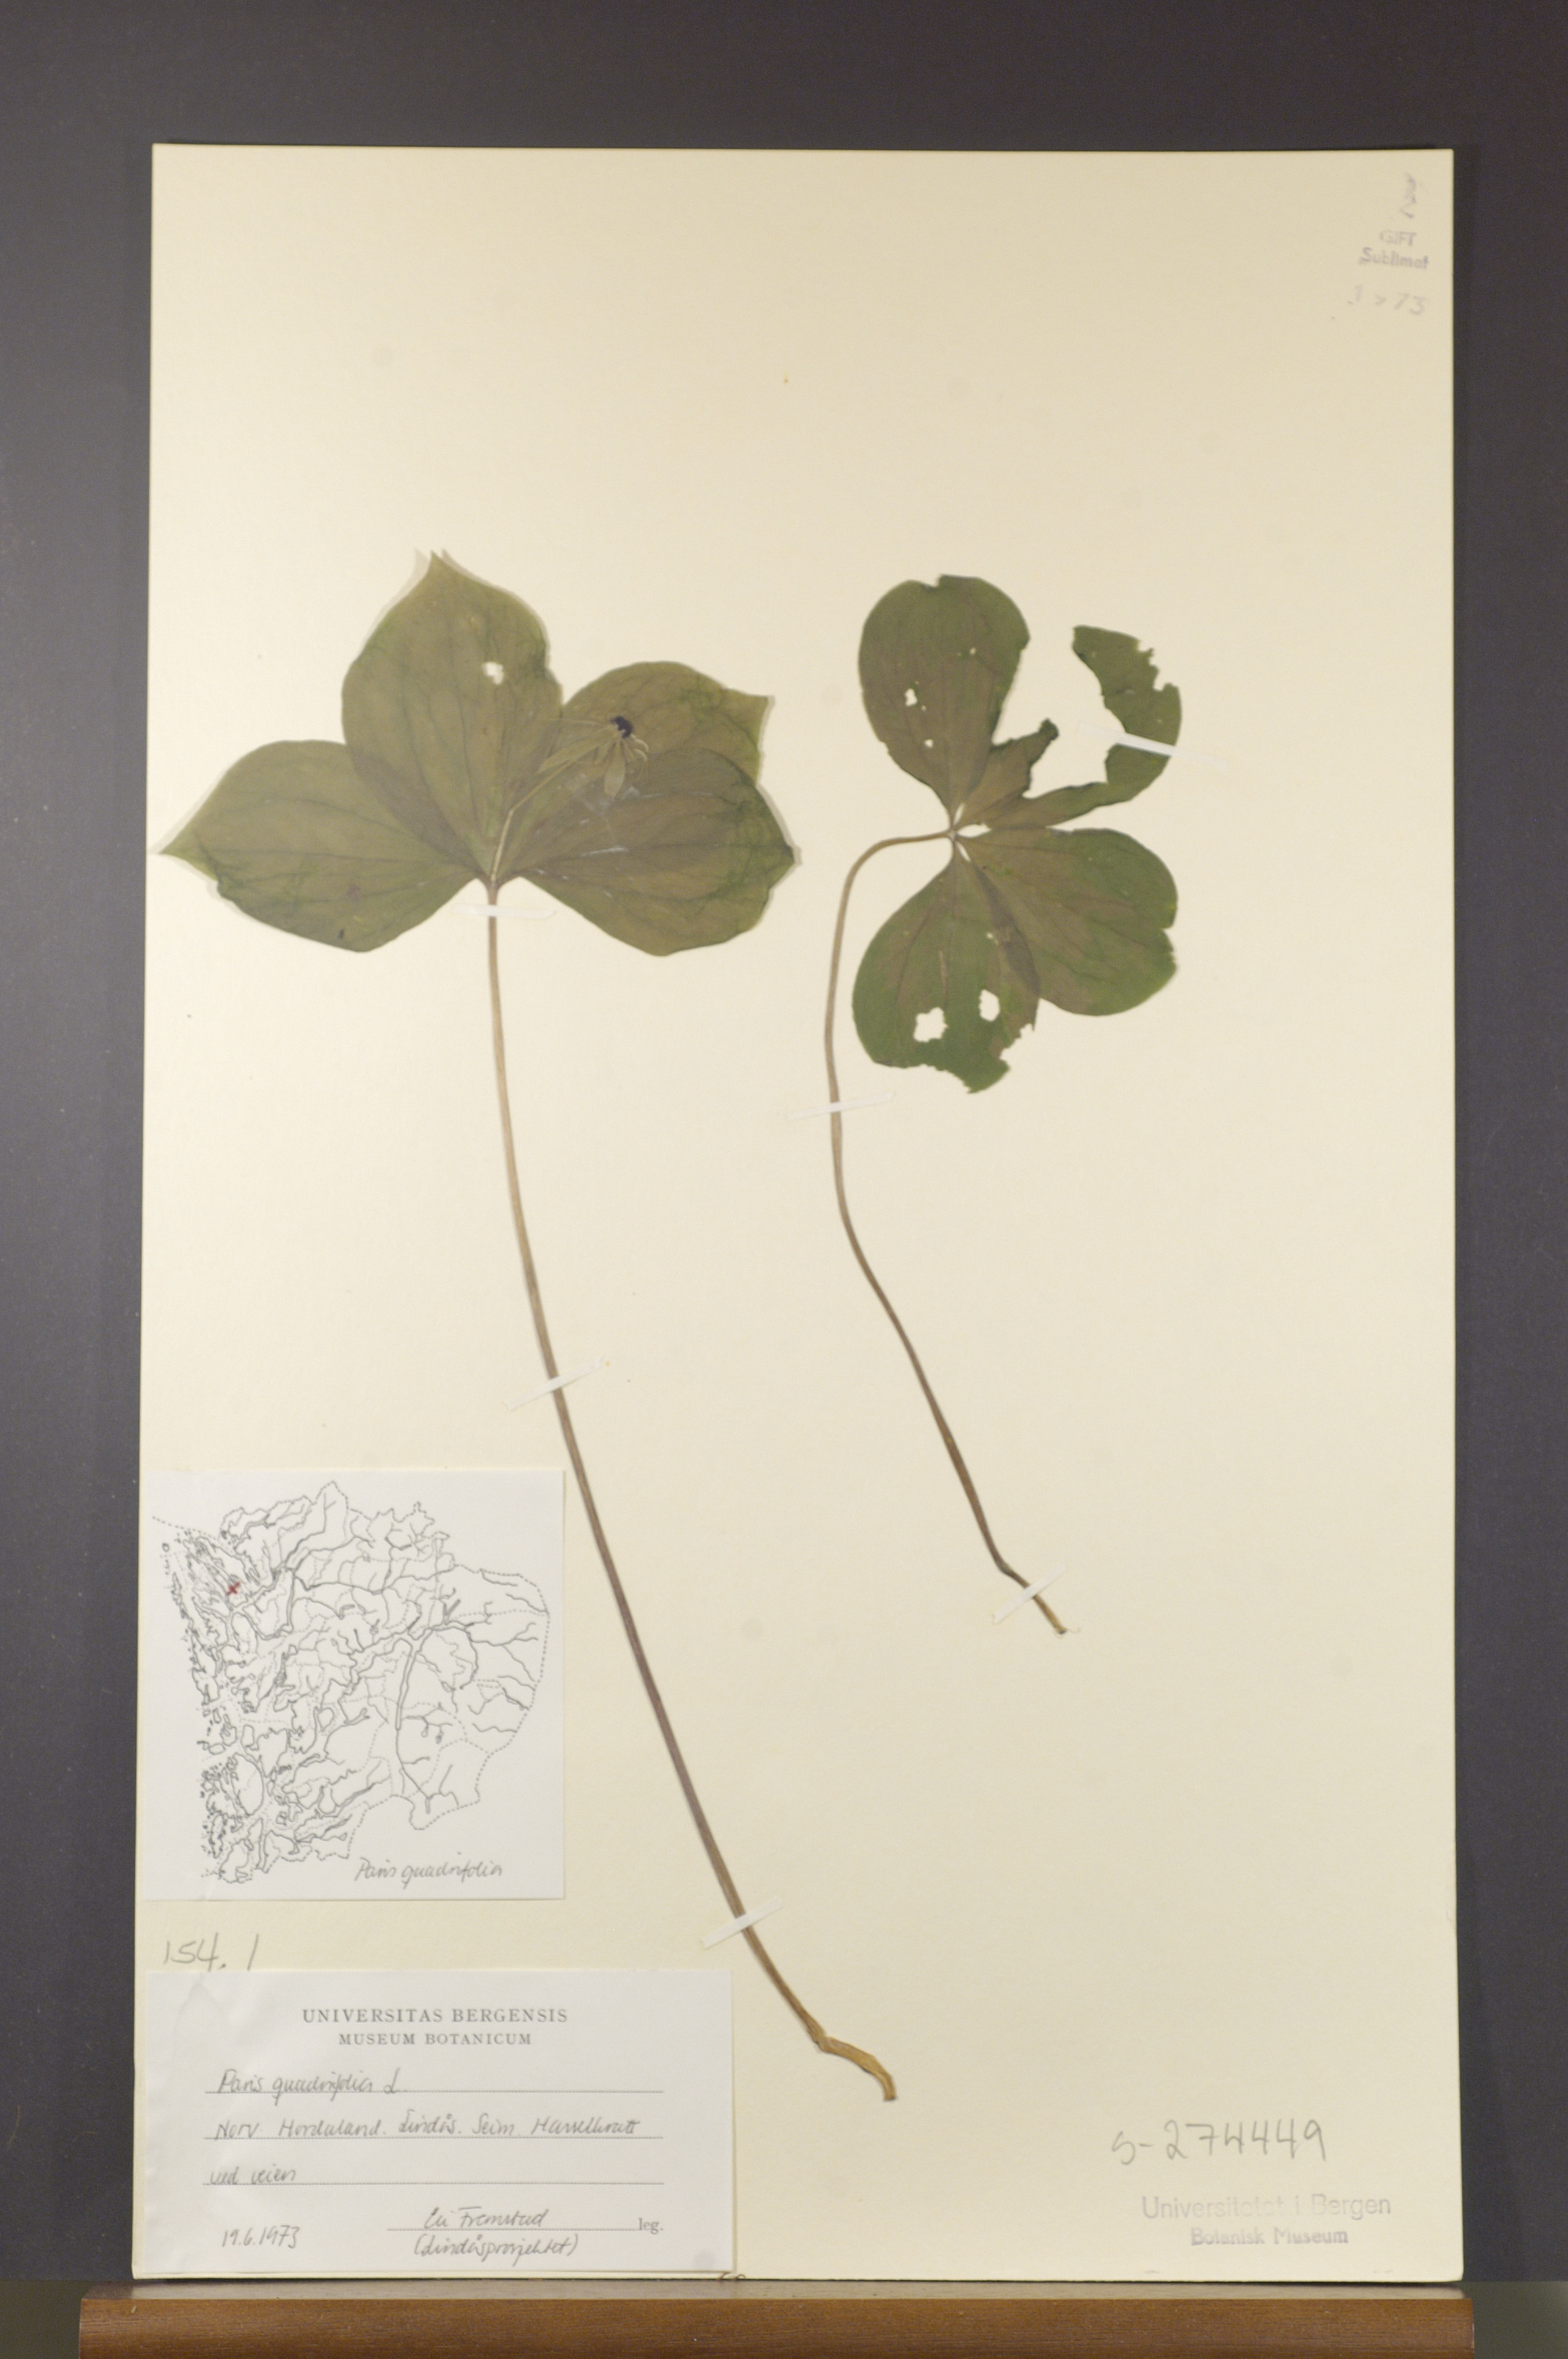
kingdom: Plantae
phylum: Tracheophyta
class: Liliopsida
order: Liliales
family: Melanthiaceae
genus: Paris
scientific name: Paris quadrifolia
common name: Herb-paris
